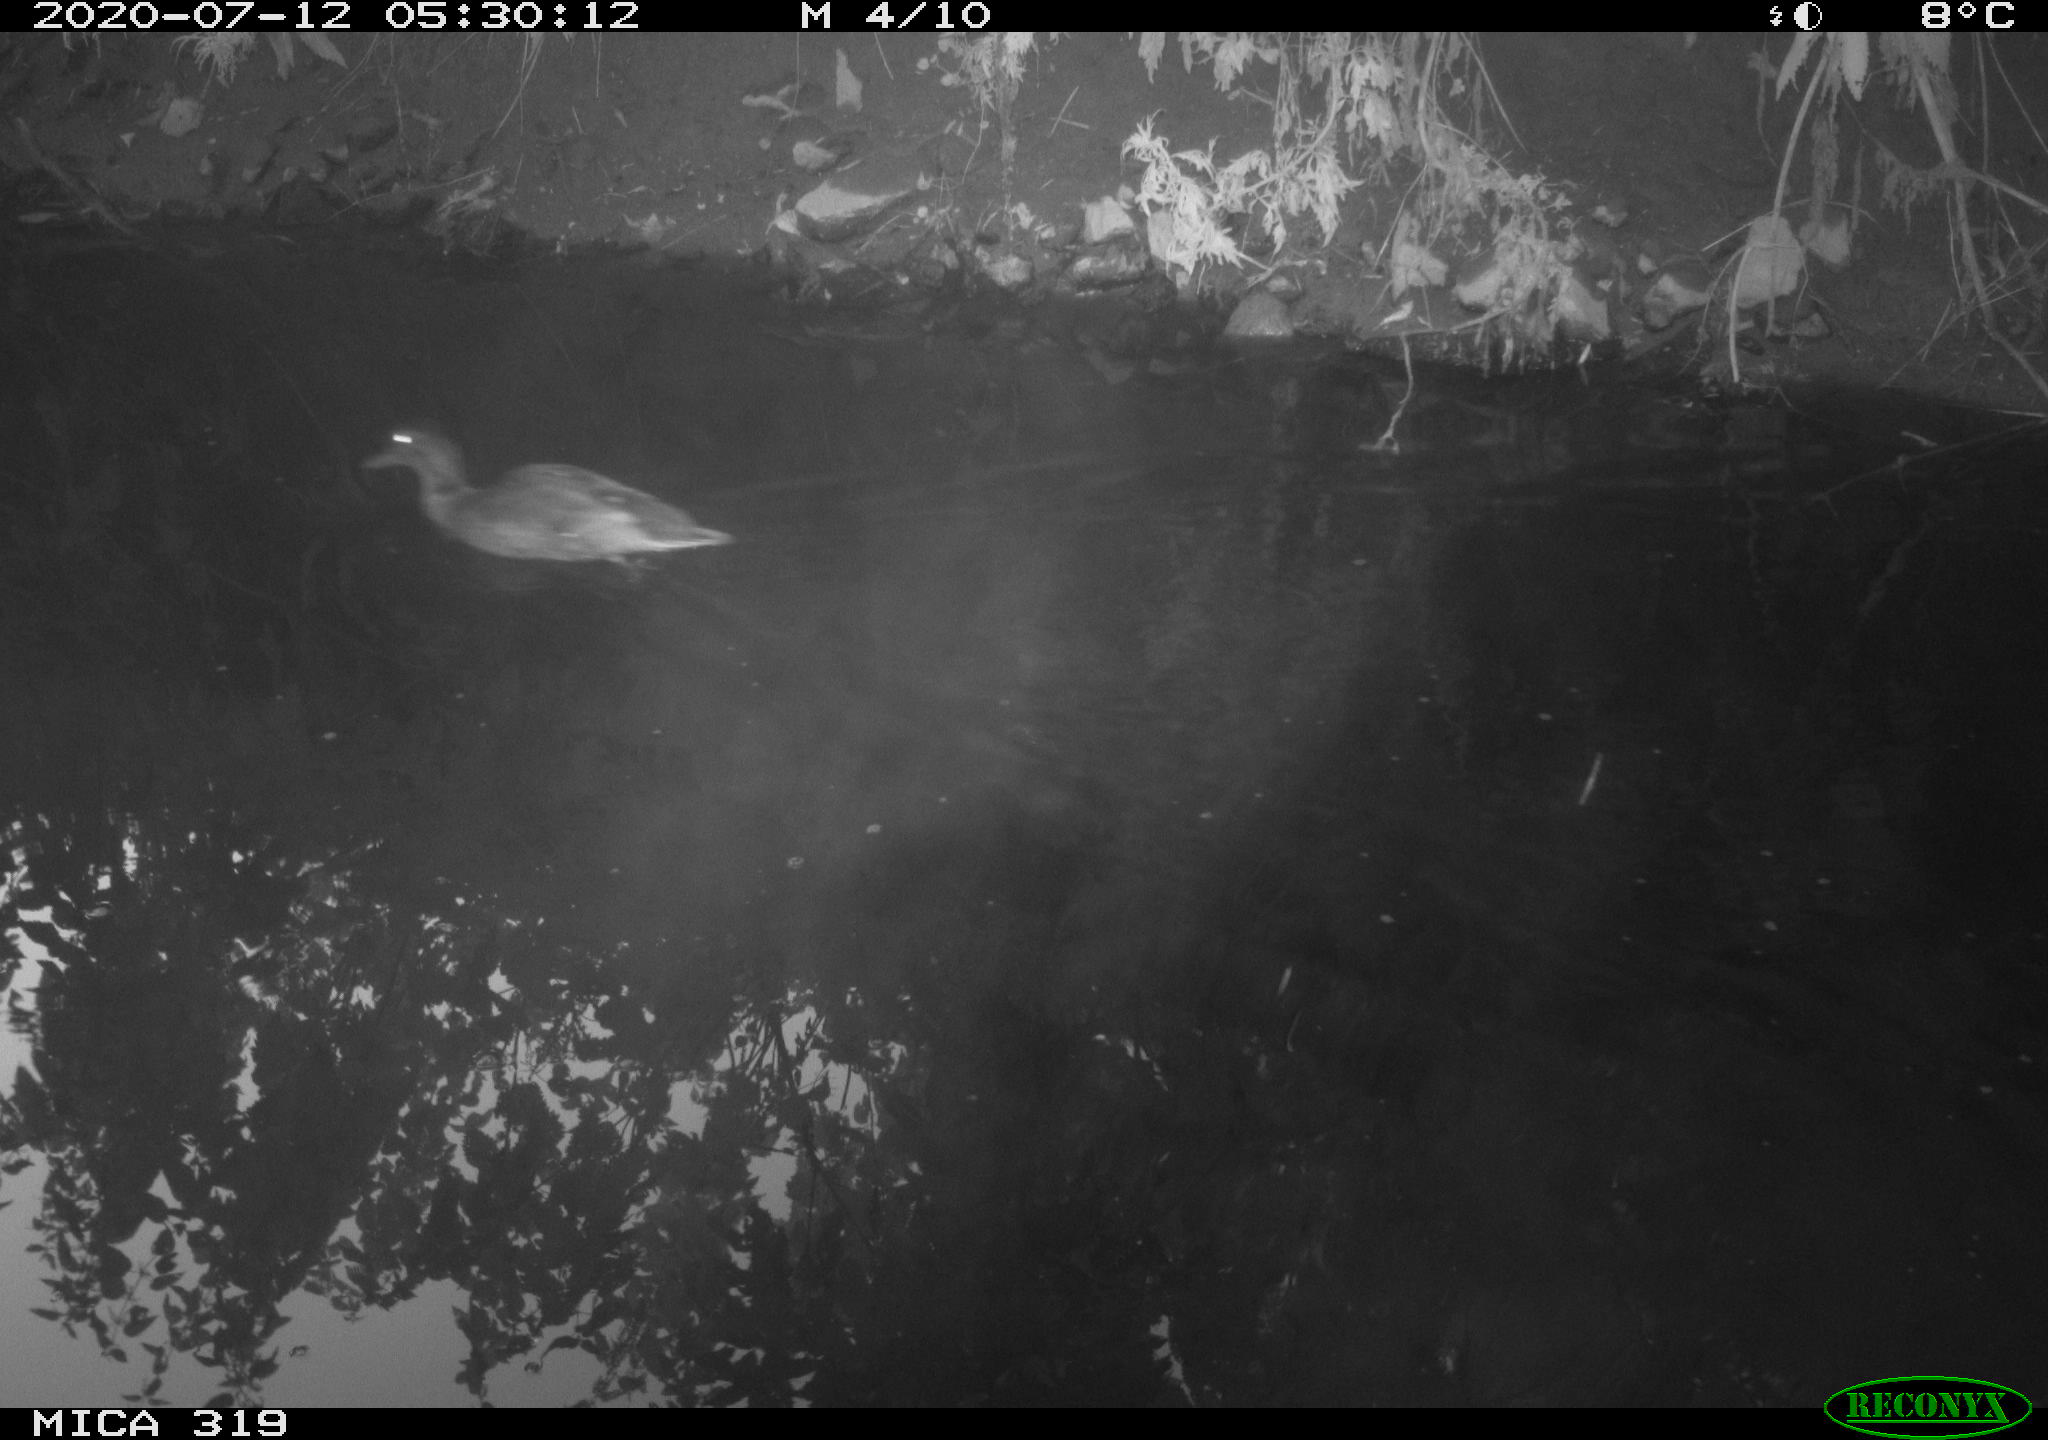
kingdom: Animalia
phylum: Chordata
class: Aves
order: Anseriformes
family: Anatidae
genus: Anas
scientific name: Anas platyrhynchos
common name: Mallard
